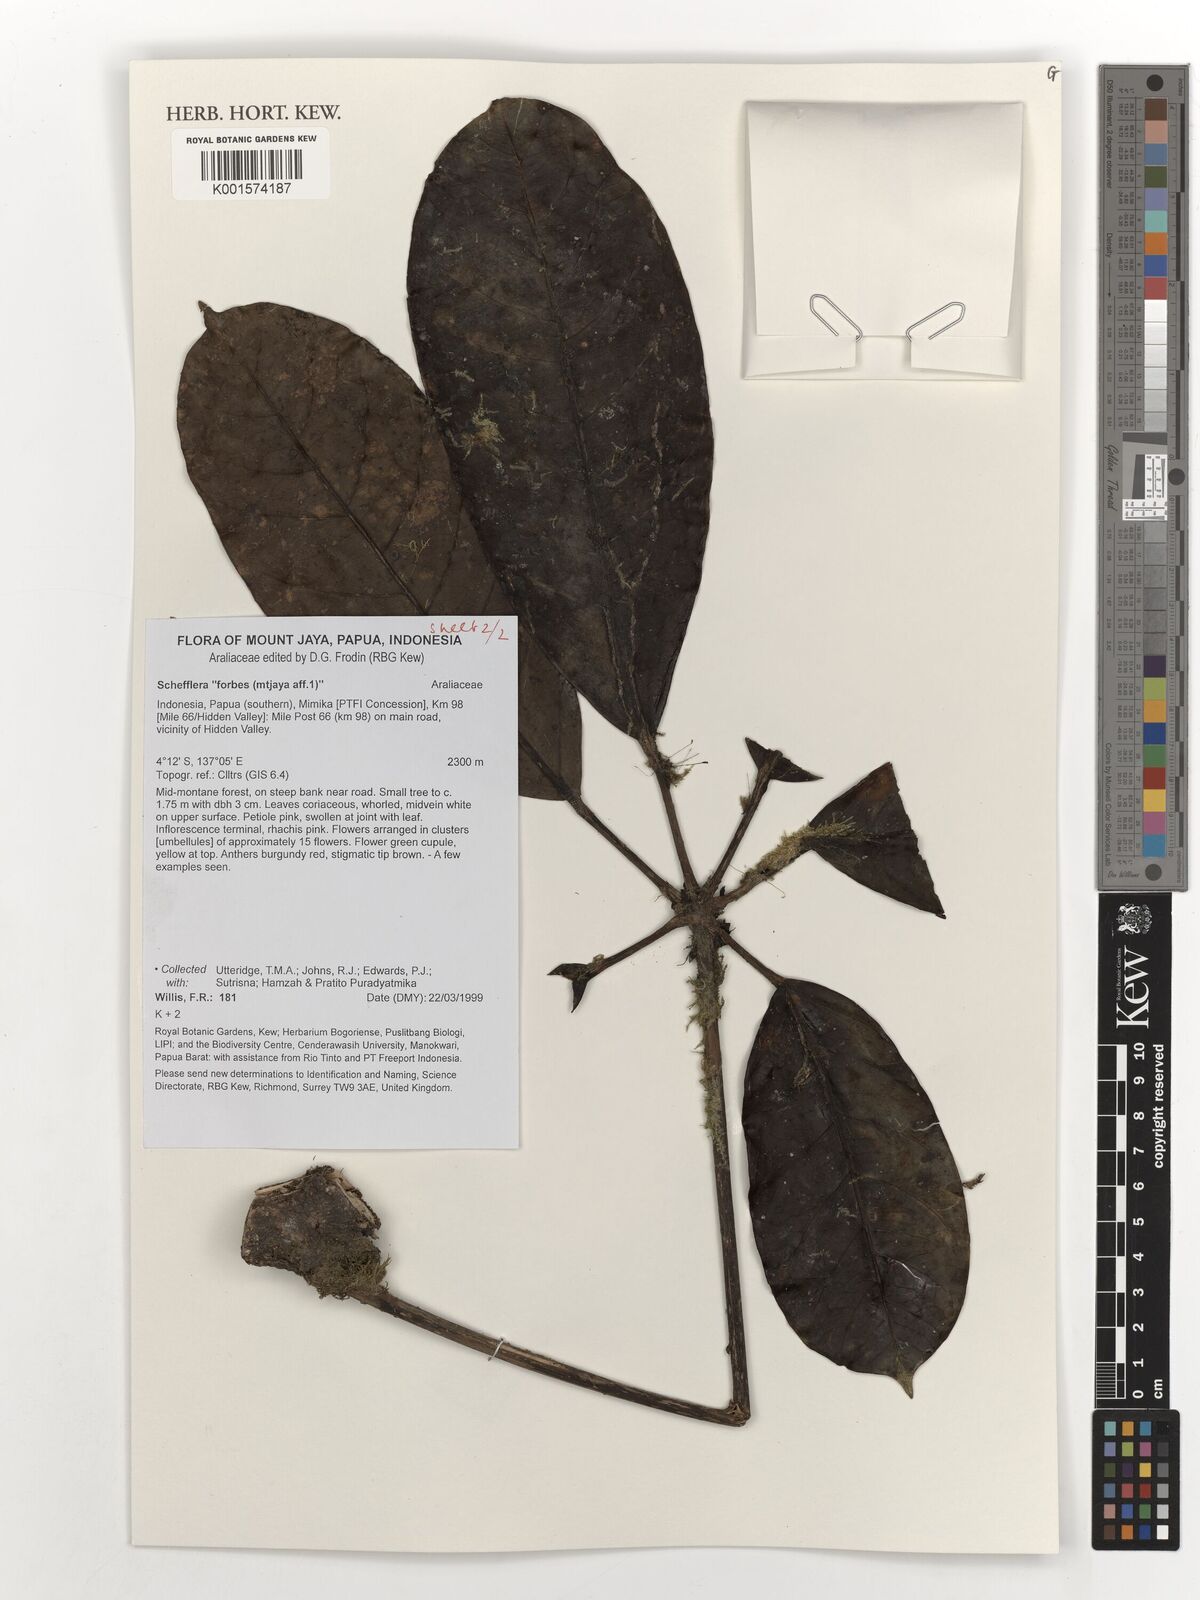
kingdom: Plantae
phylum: Tracheophyta
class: Magnoliopsida
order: Apiales
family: Araliaceae
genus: Schefflera
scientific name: Schefflera
